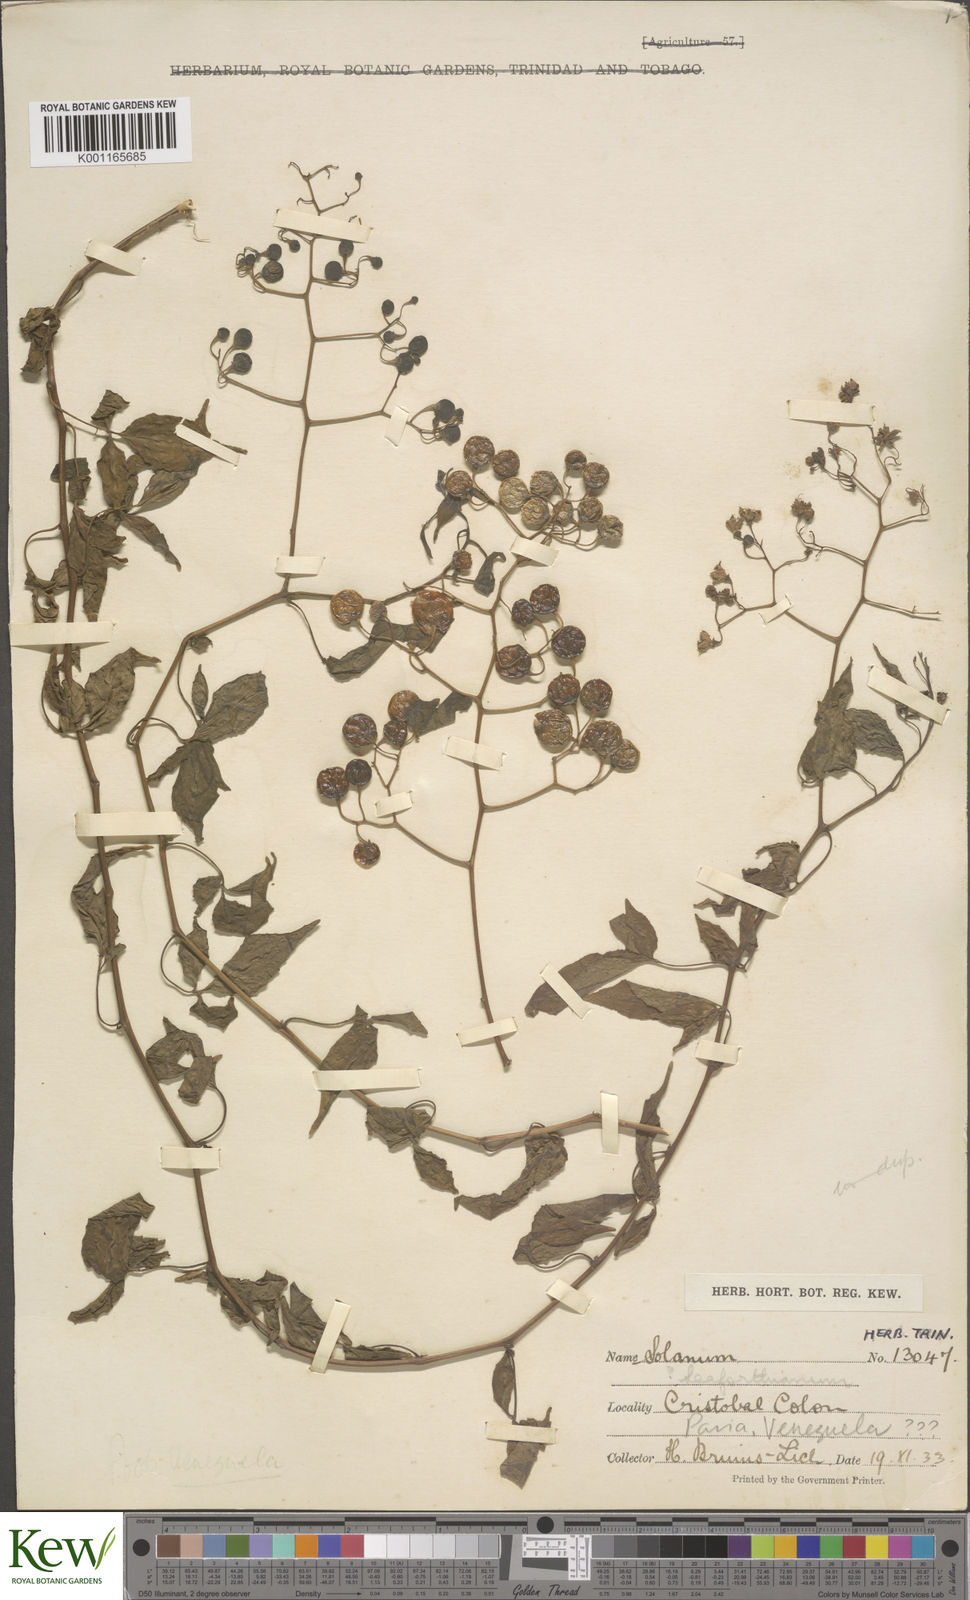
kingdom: Plantae
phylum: Tracheophyta
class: Magnoliopsida
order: Solanales
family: Solanaceae
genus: Solanum
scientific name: Solanum seaforthianum
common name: Brazilian nightshade
